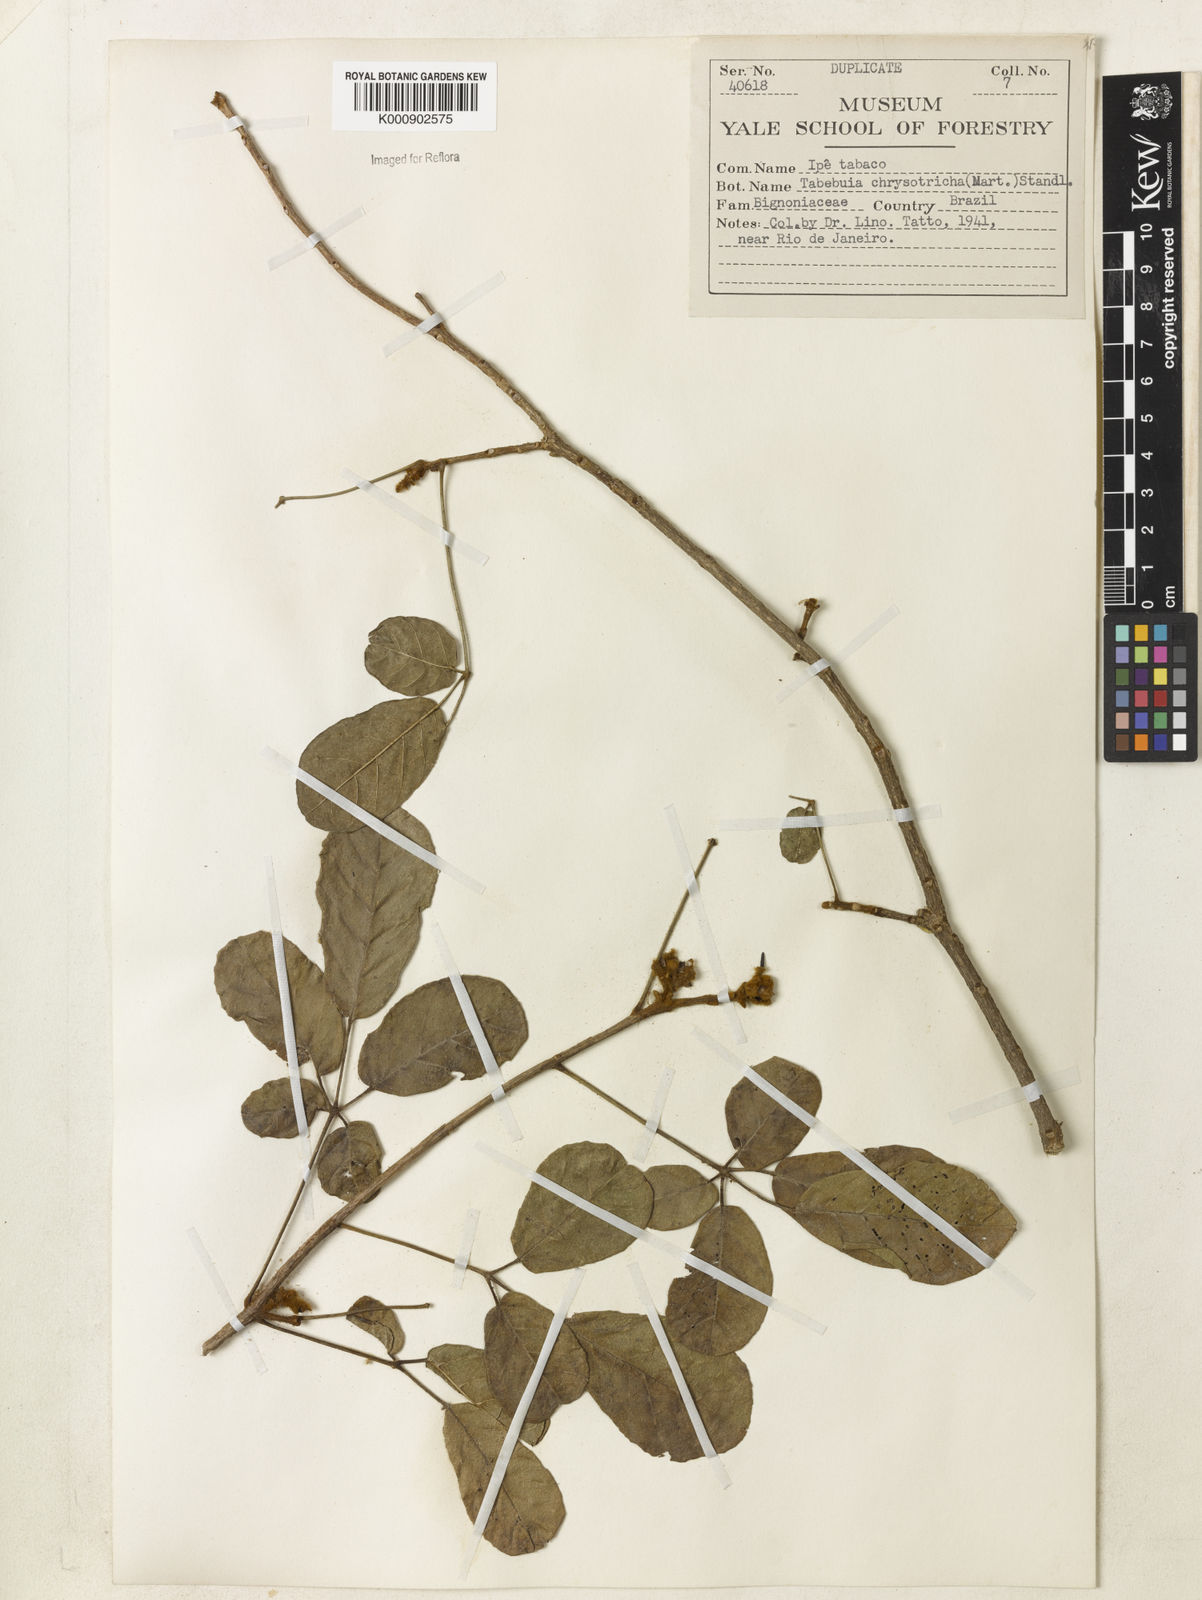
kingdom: Plantae
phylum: Tracheophyta
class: Magnoliopsida
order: Lamiales
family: Bignoniaceae
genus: Handroanthus
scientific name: Handroanthus chrysotrichus
